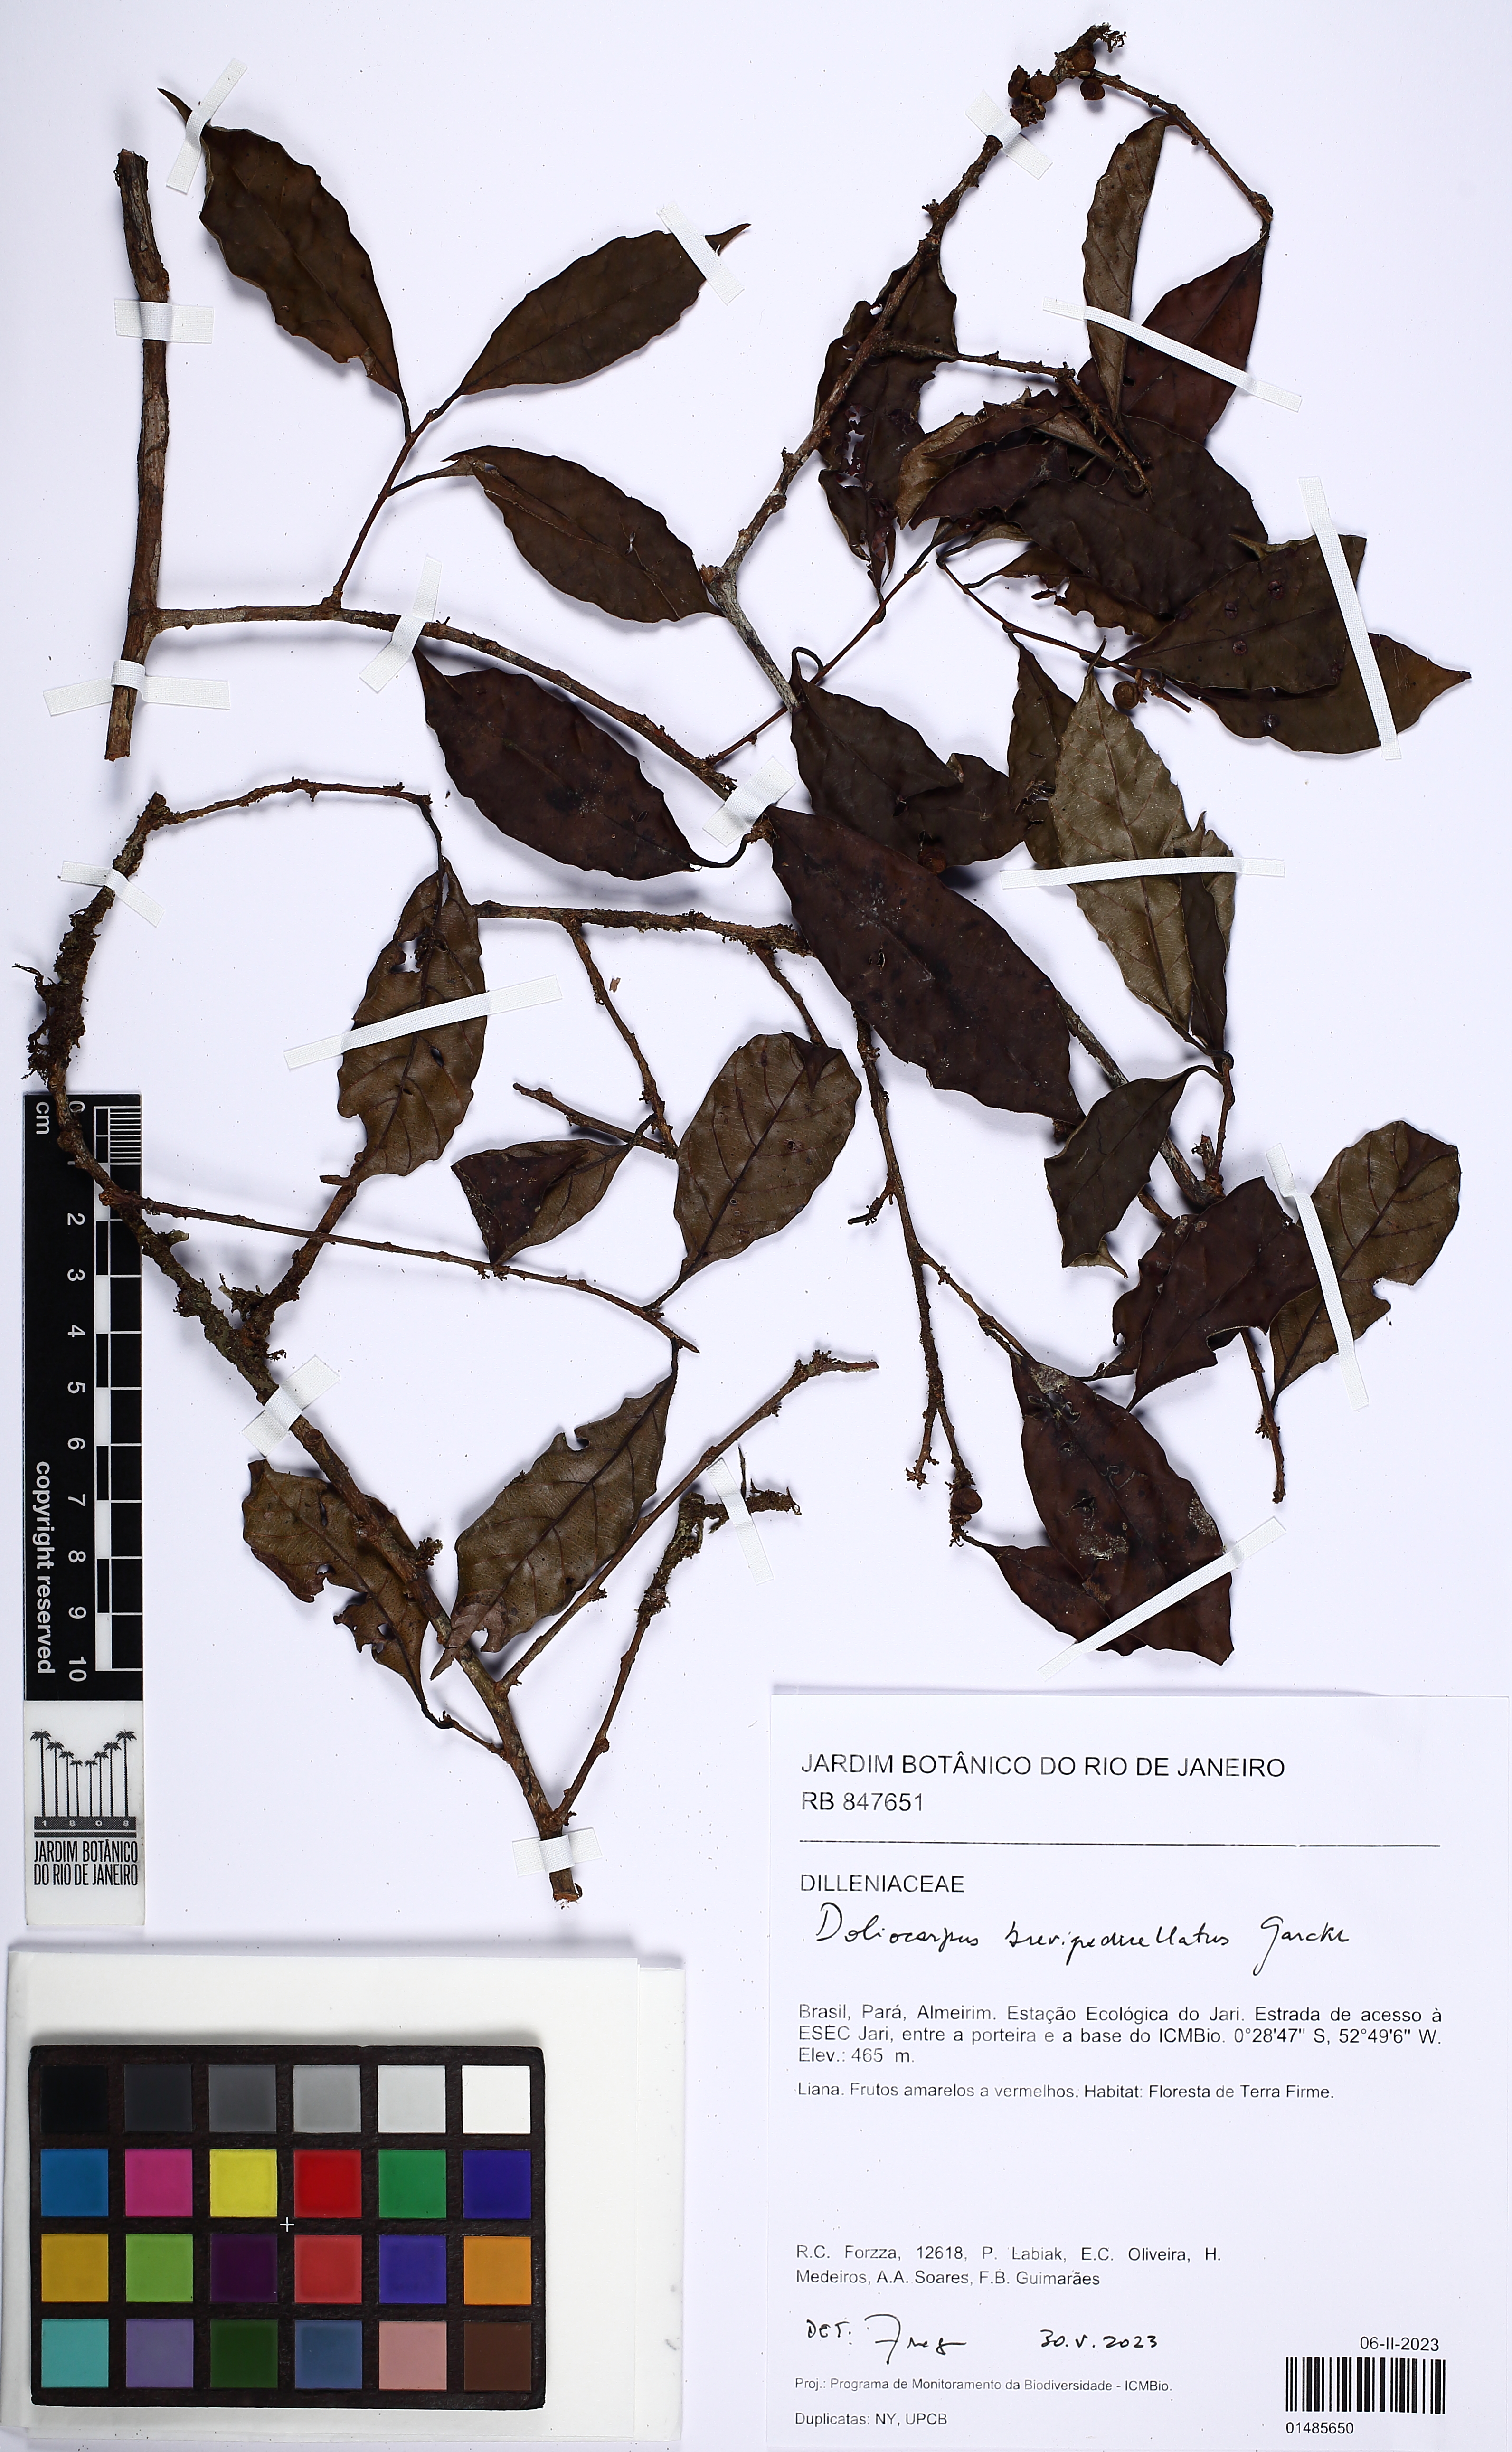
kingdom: Plantae
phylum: Tracheophyta
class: Magnoliopsida
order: Dilleniales
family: Dilleniaceae
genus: Doliocarpus
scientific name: Doliocarpus brevipedicellatus
